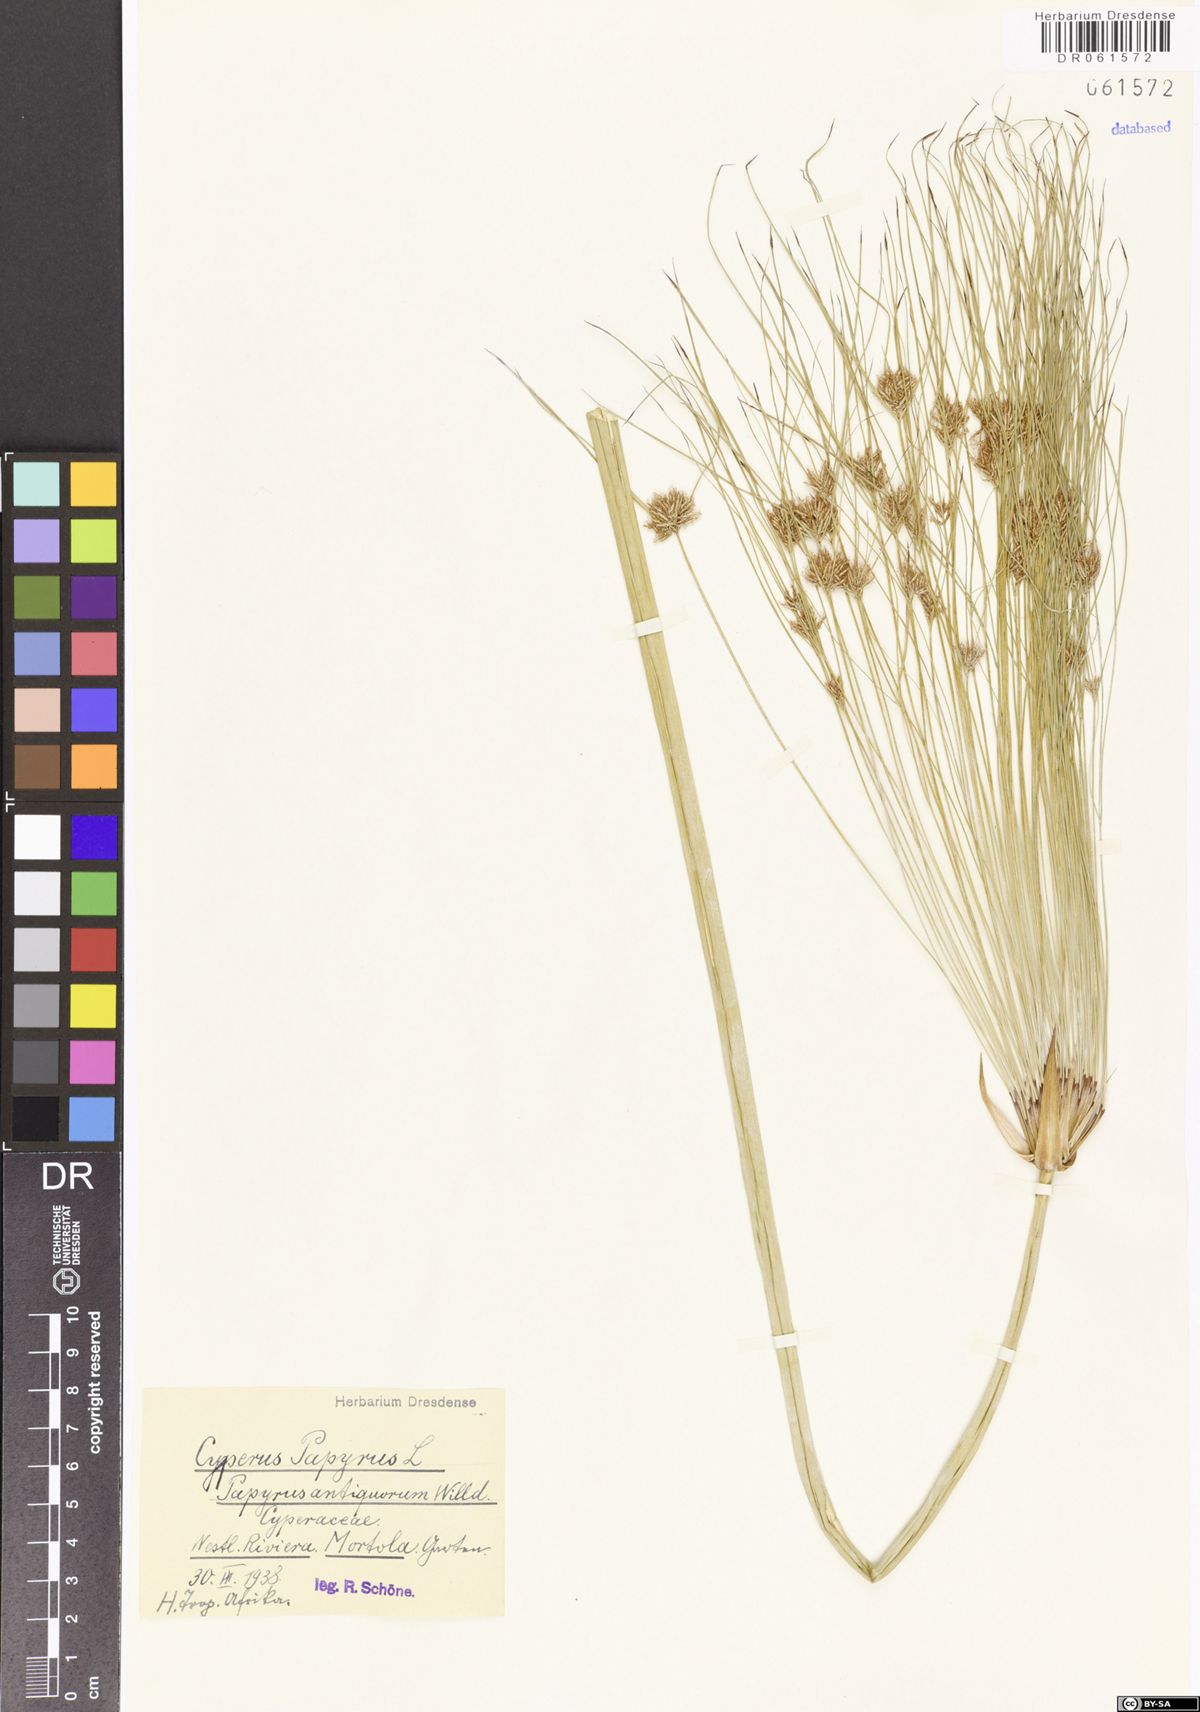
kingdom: Plantae
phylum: Tracheophyta
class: Liliopsida
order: Poales
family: Cyperaceae
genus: Cyperus
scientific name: Cyperus papyrus
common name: Papyrus
